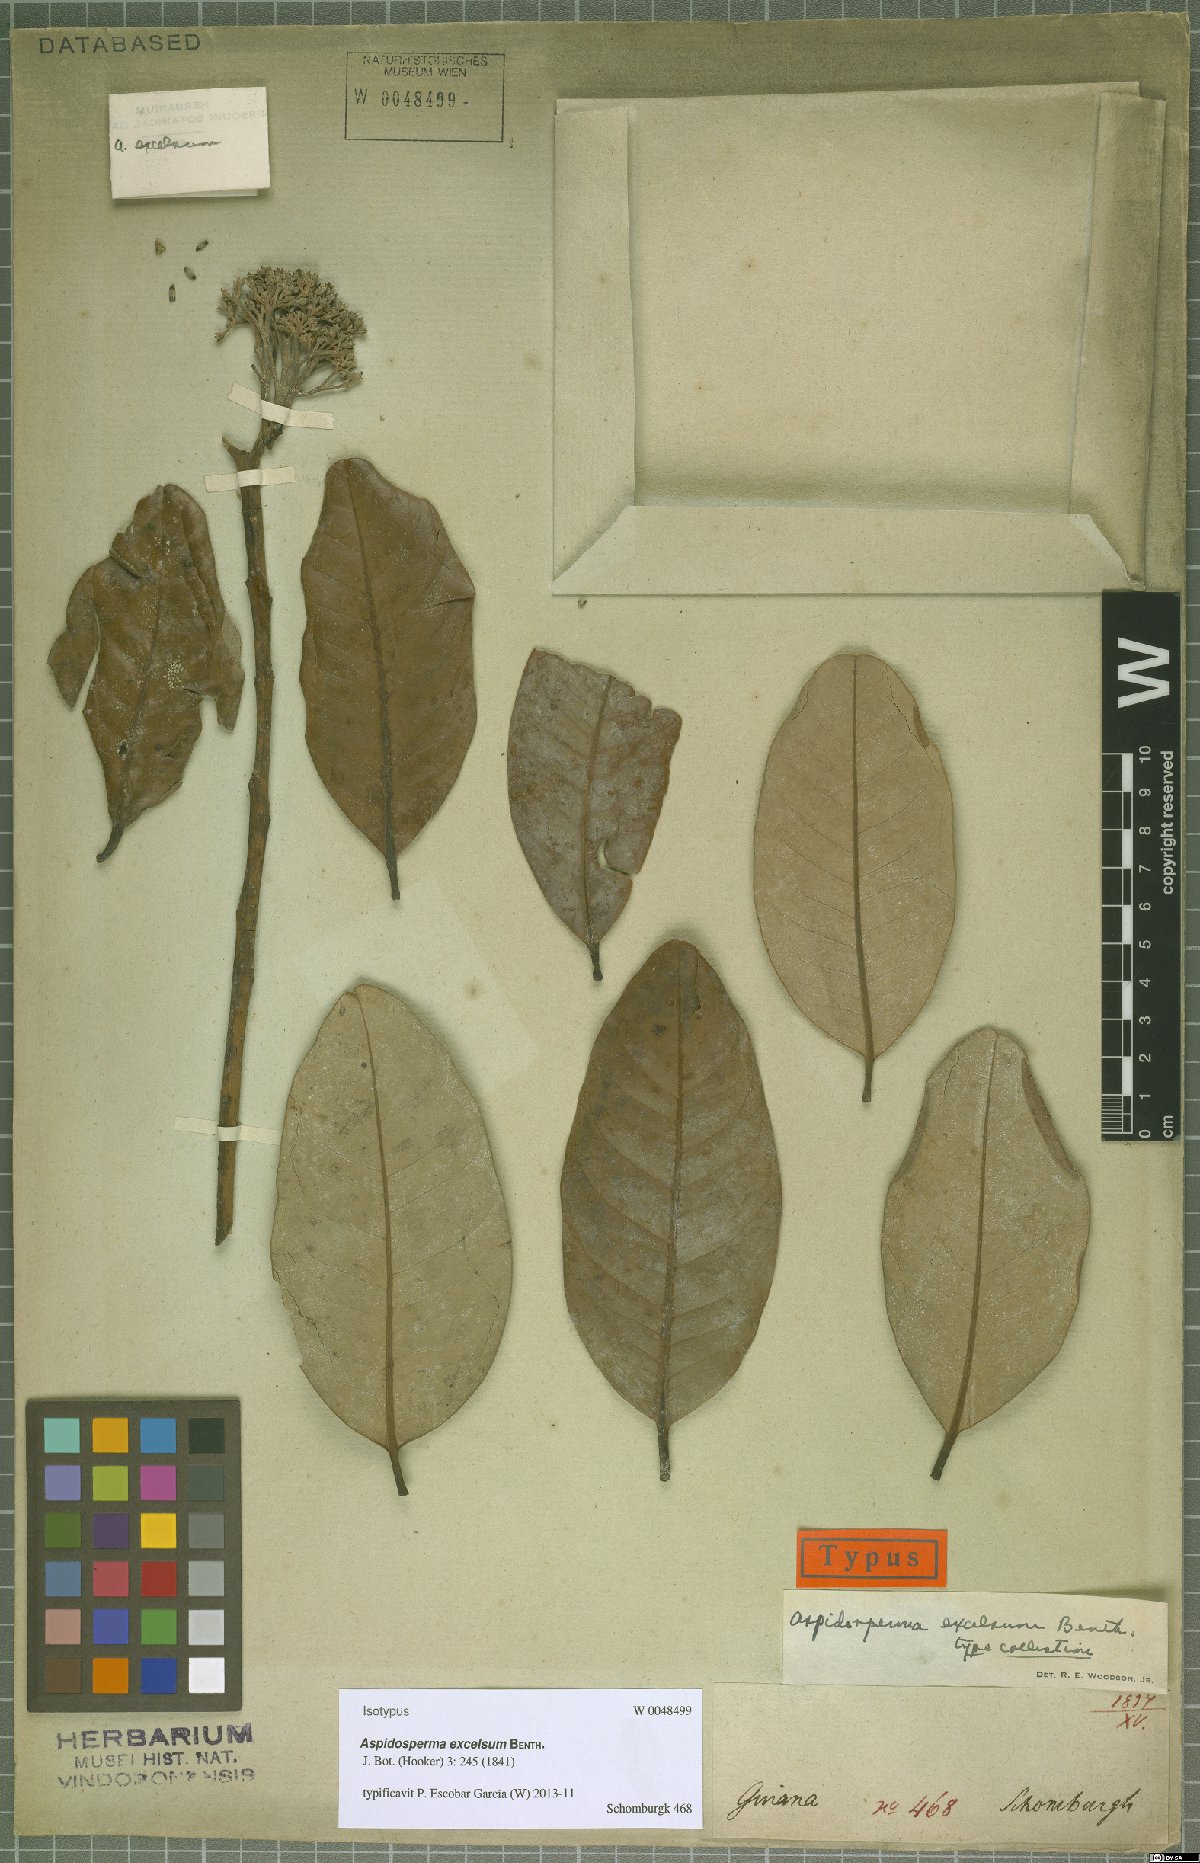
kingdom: Plantae
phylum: Tracheophyta
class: Magnoliopsida
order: Gentianales
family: Apocynaceae
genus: Aspidosperma
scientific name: Aspidosperma excelsum
